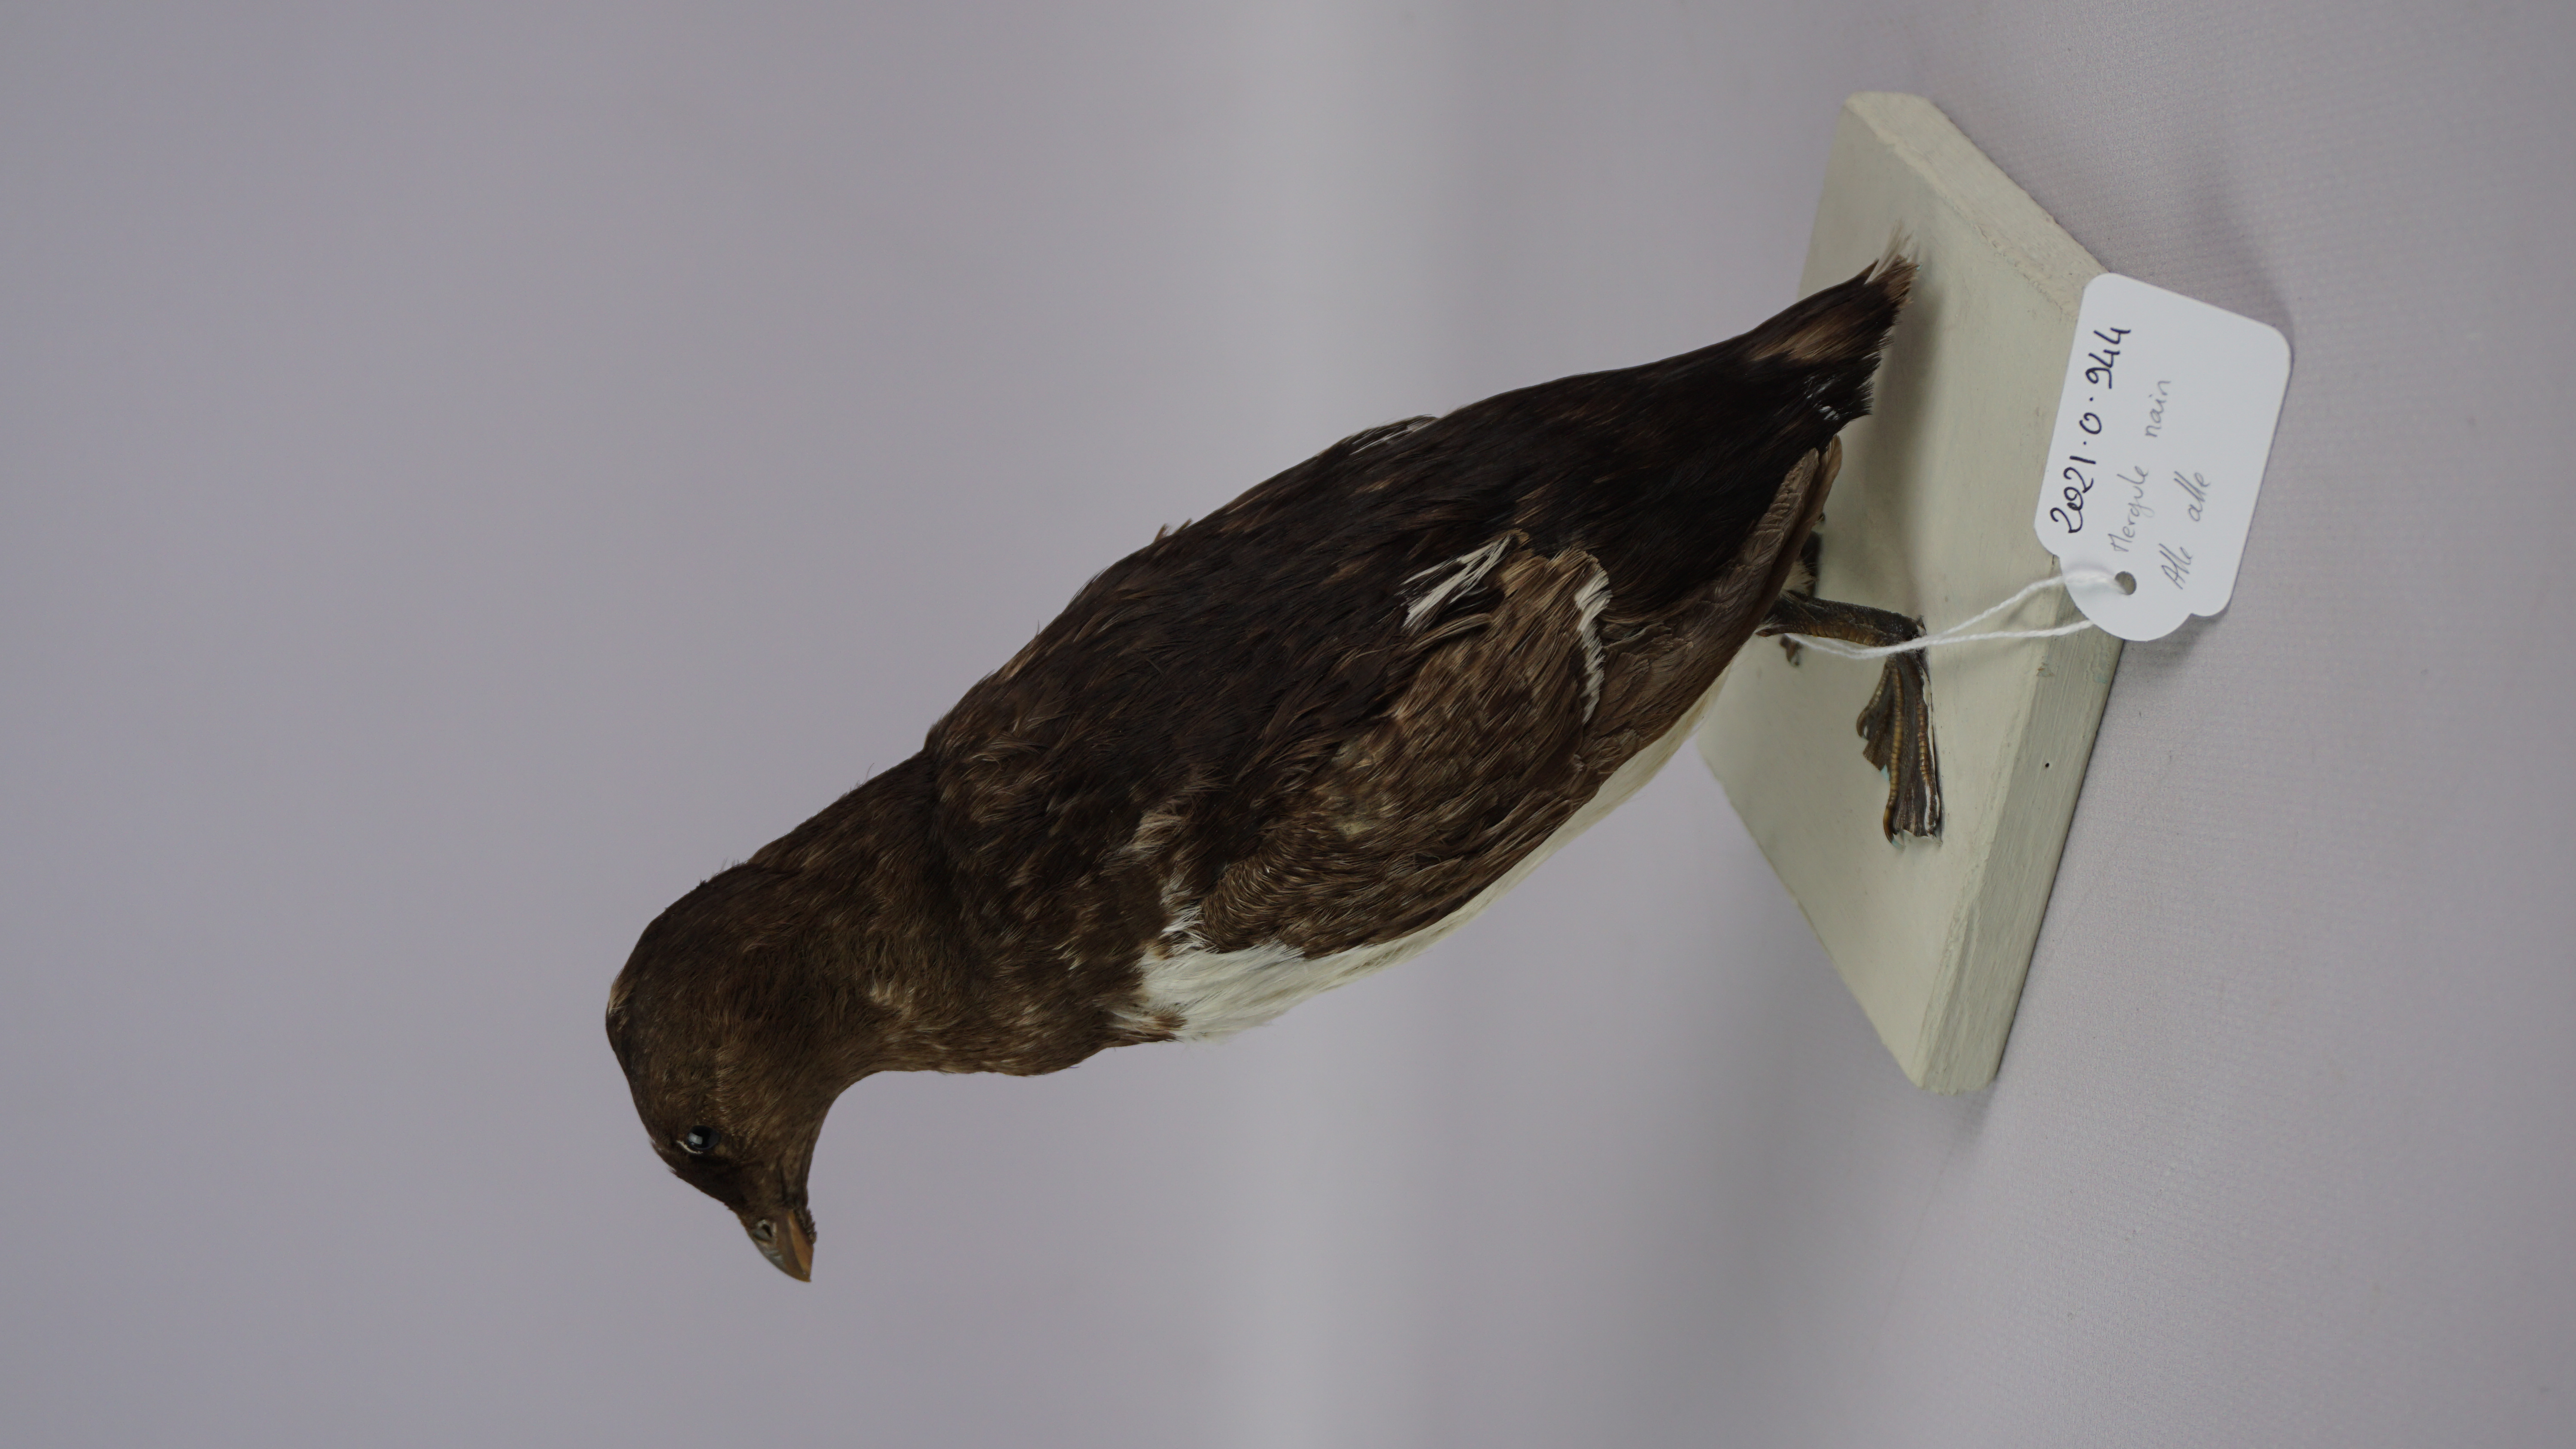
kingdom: Animalia
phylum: Chordata
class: Aves
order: Charadriiformes
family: Alcidae
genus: Alle
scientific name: Alle alle
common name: Little auk
